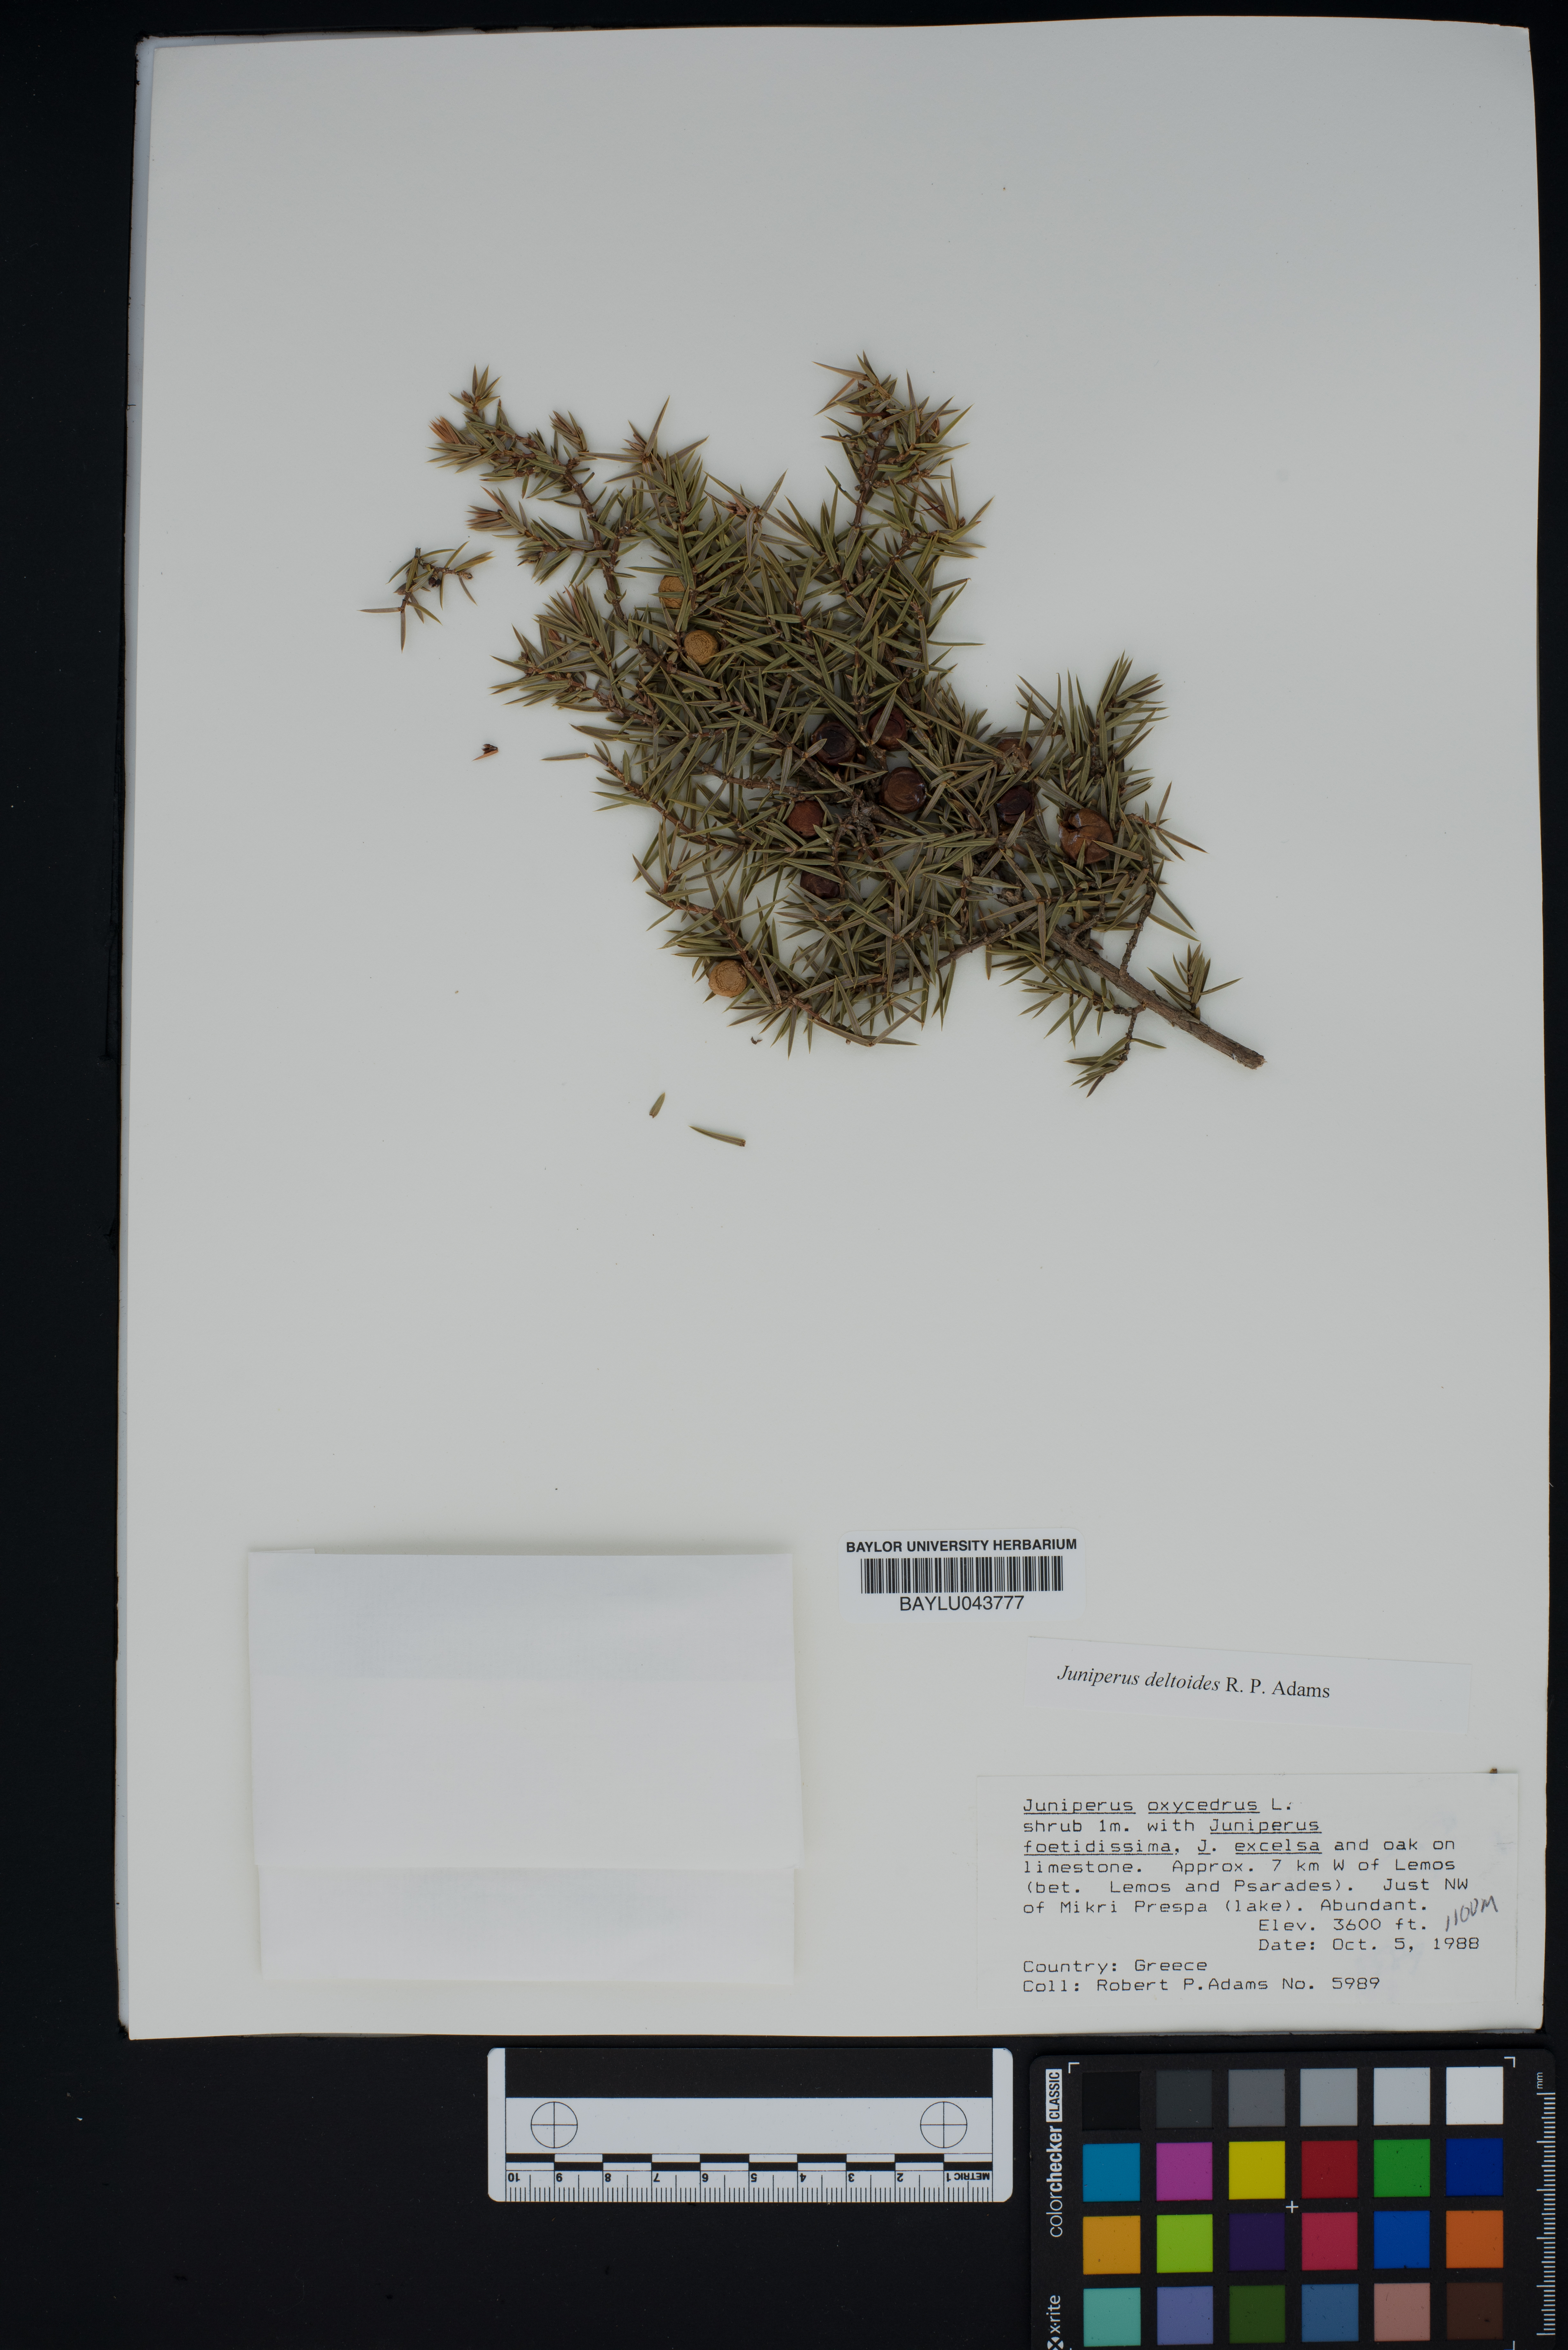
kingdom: Plantae
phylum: Tracheophyta
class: Pinopsida
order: Pinales
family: Cupressaceae
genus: Juniperus
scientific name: Juniperus oxycedrus
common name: Prickly juniper
